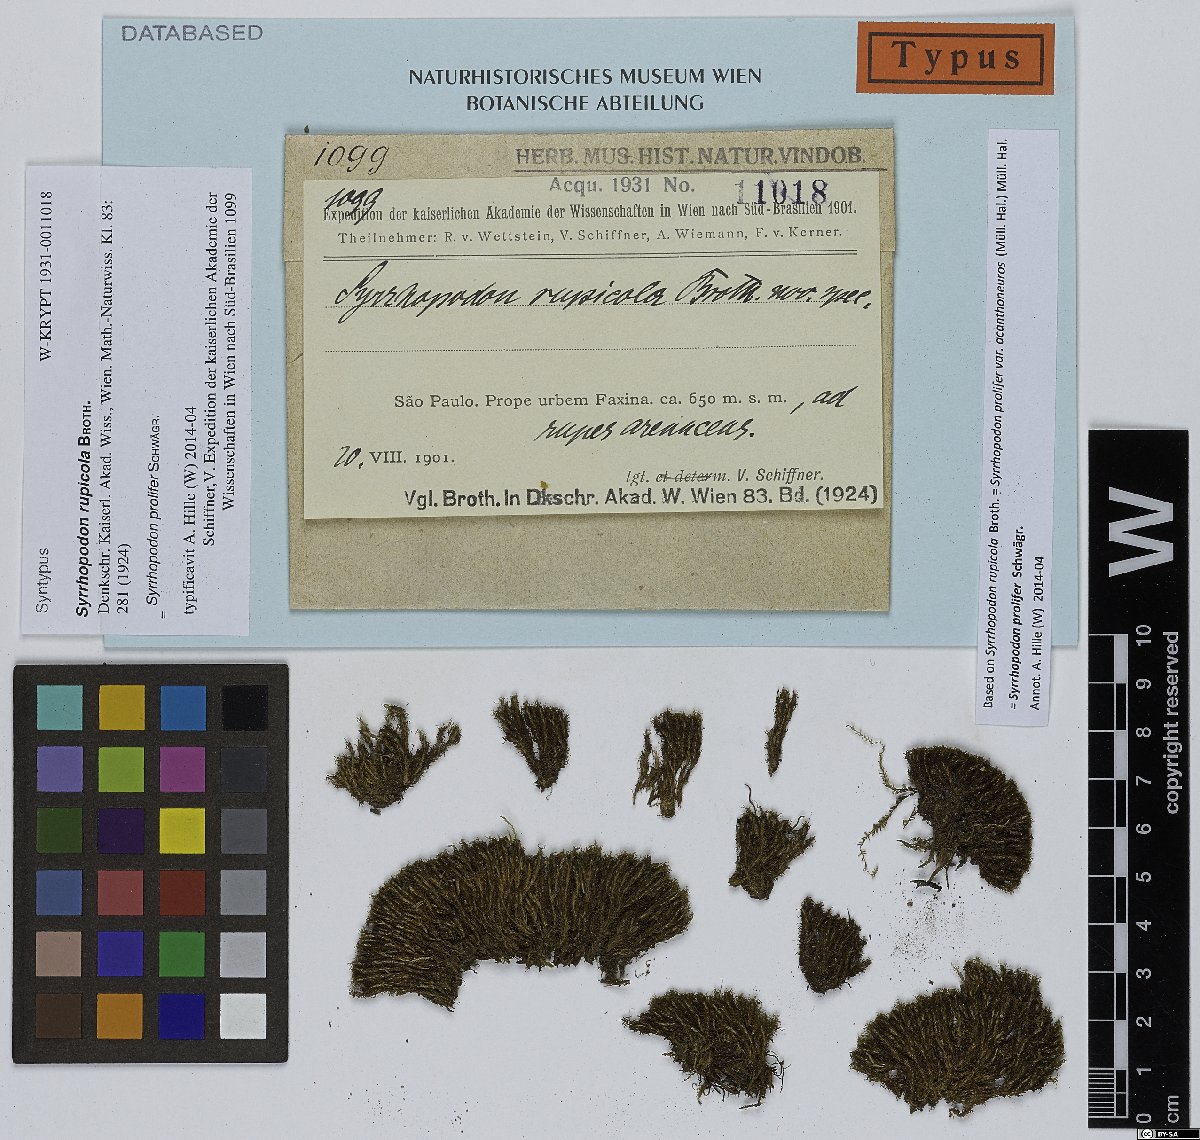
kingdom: Plantae
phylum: Bryophyta
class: Bryopsida
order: Dicranales
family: Calymperaceae
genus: Syrrhopodon
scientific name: Syrrhopodon prolifer
